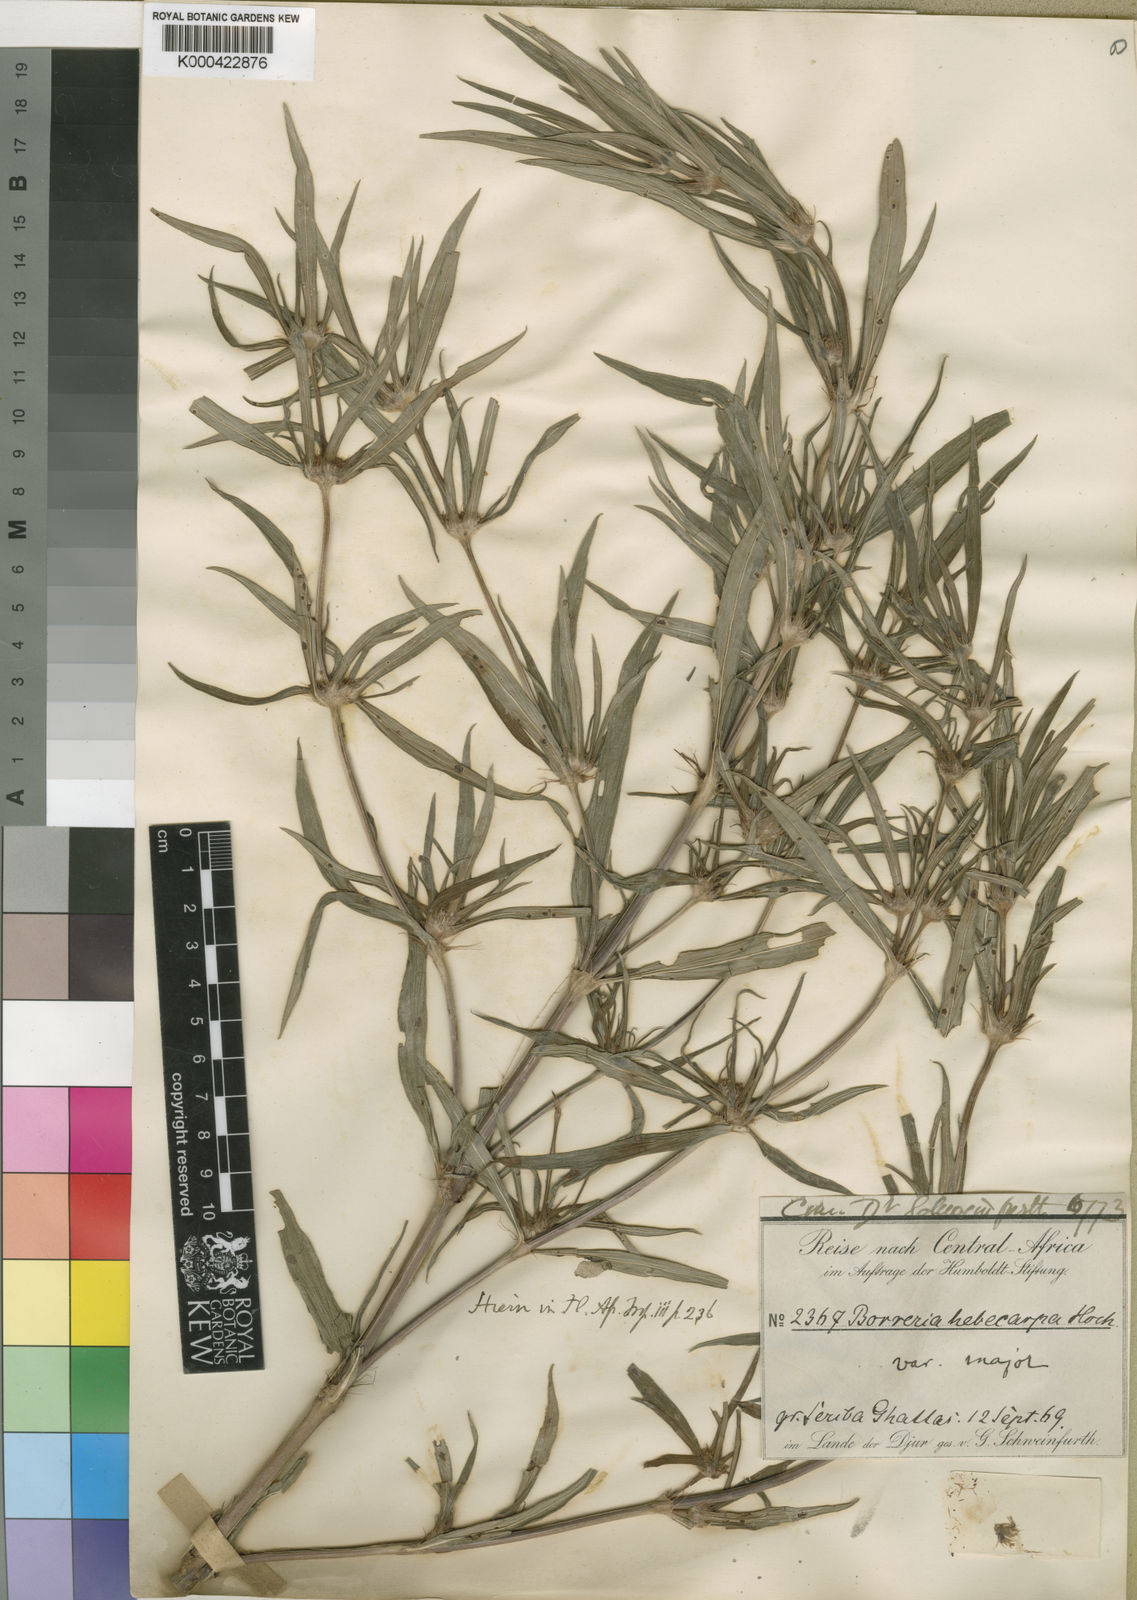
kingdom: Plantae
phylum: Tracheophyta
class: Magnoliopsida
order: Gentianales
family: Rubiaceae
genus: Spermacoce
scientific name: Spermacoce chaetocephala
